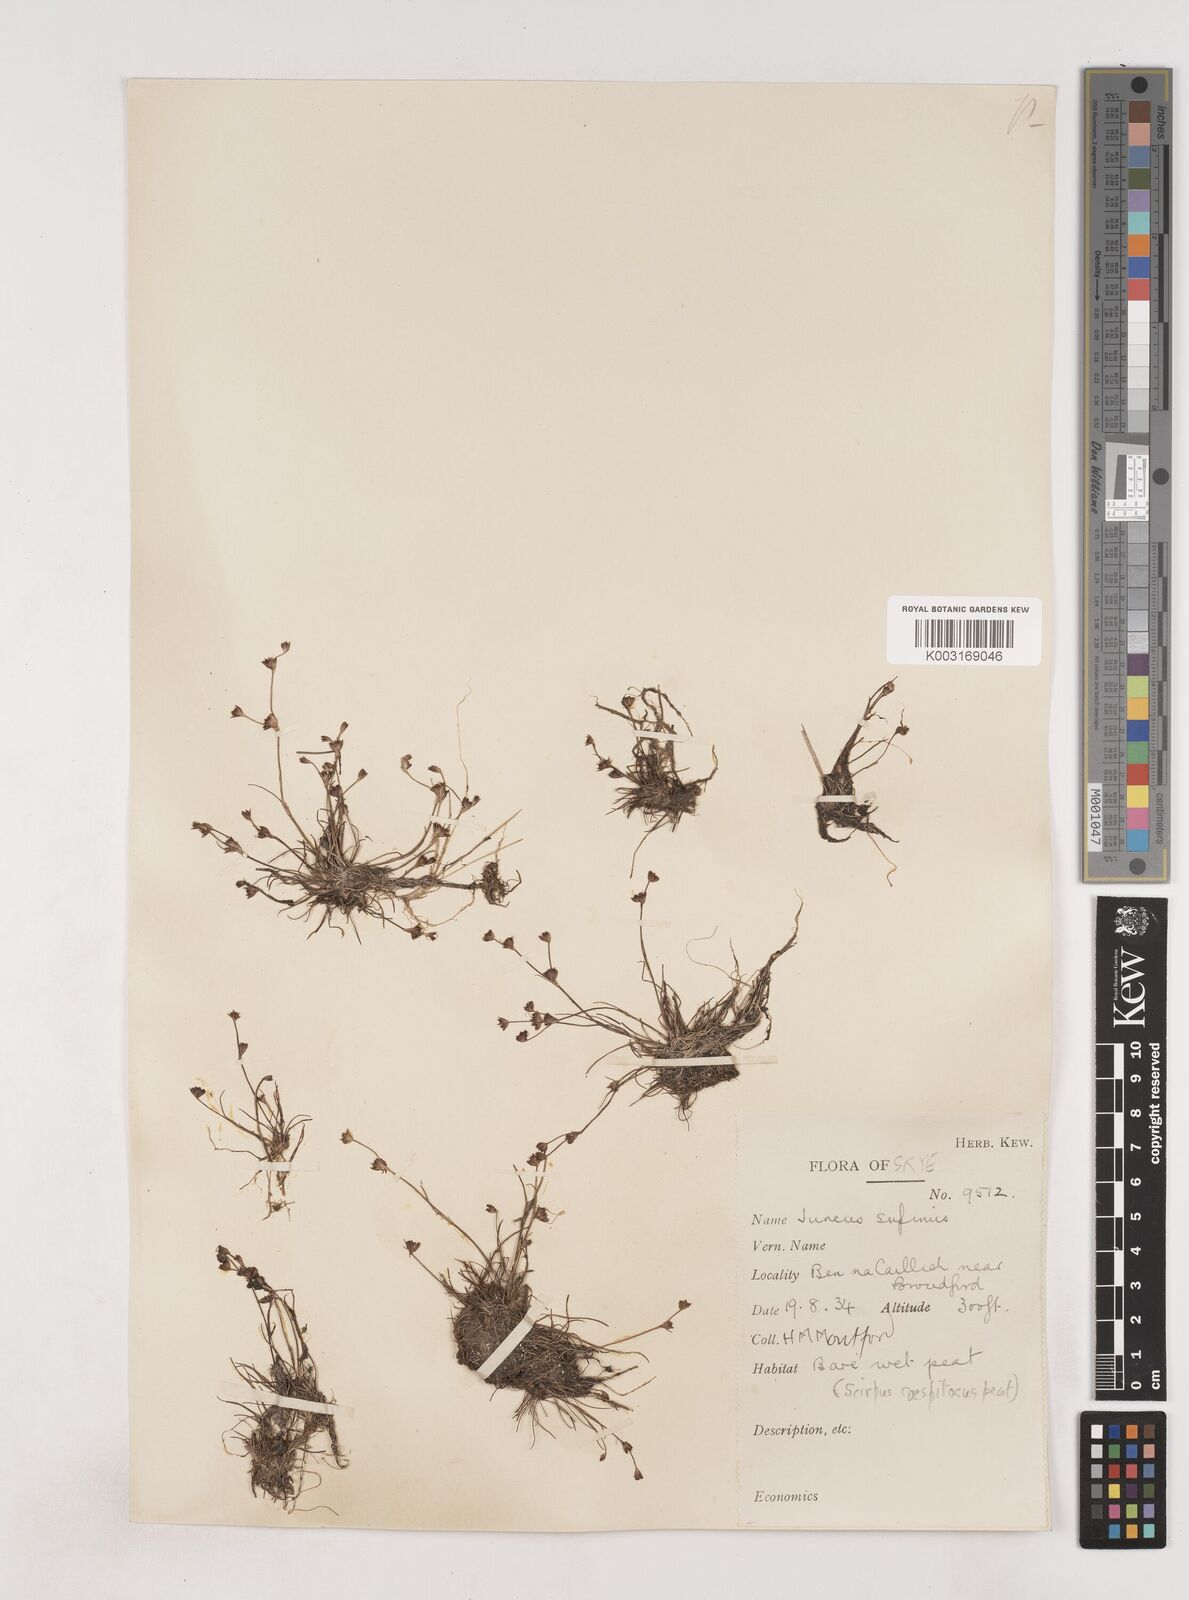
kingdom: Plantae
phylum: Tracheophyta
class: Liliopsida
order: Poales
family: Juncaceae
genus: Juncus
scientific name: Juncus bulbosus
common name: Bulbous rush
